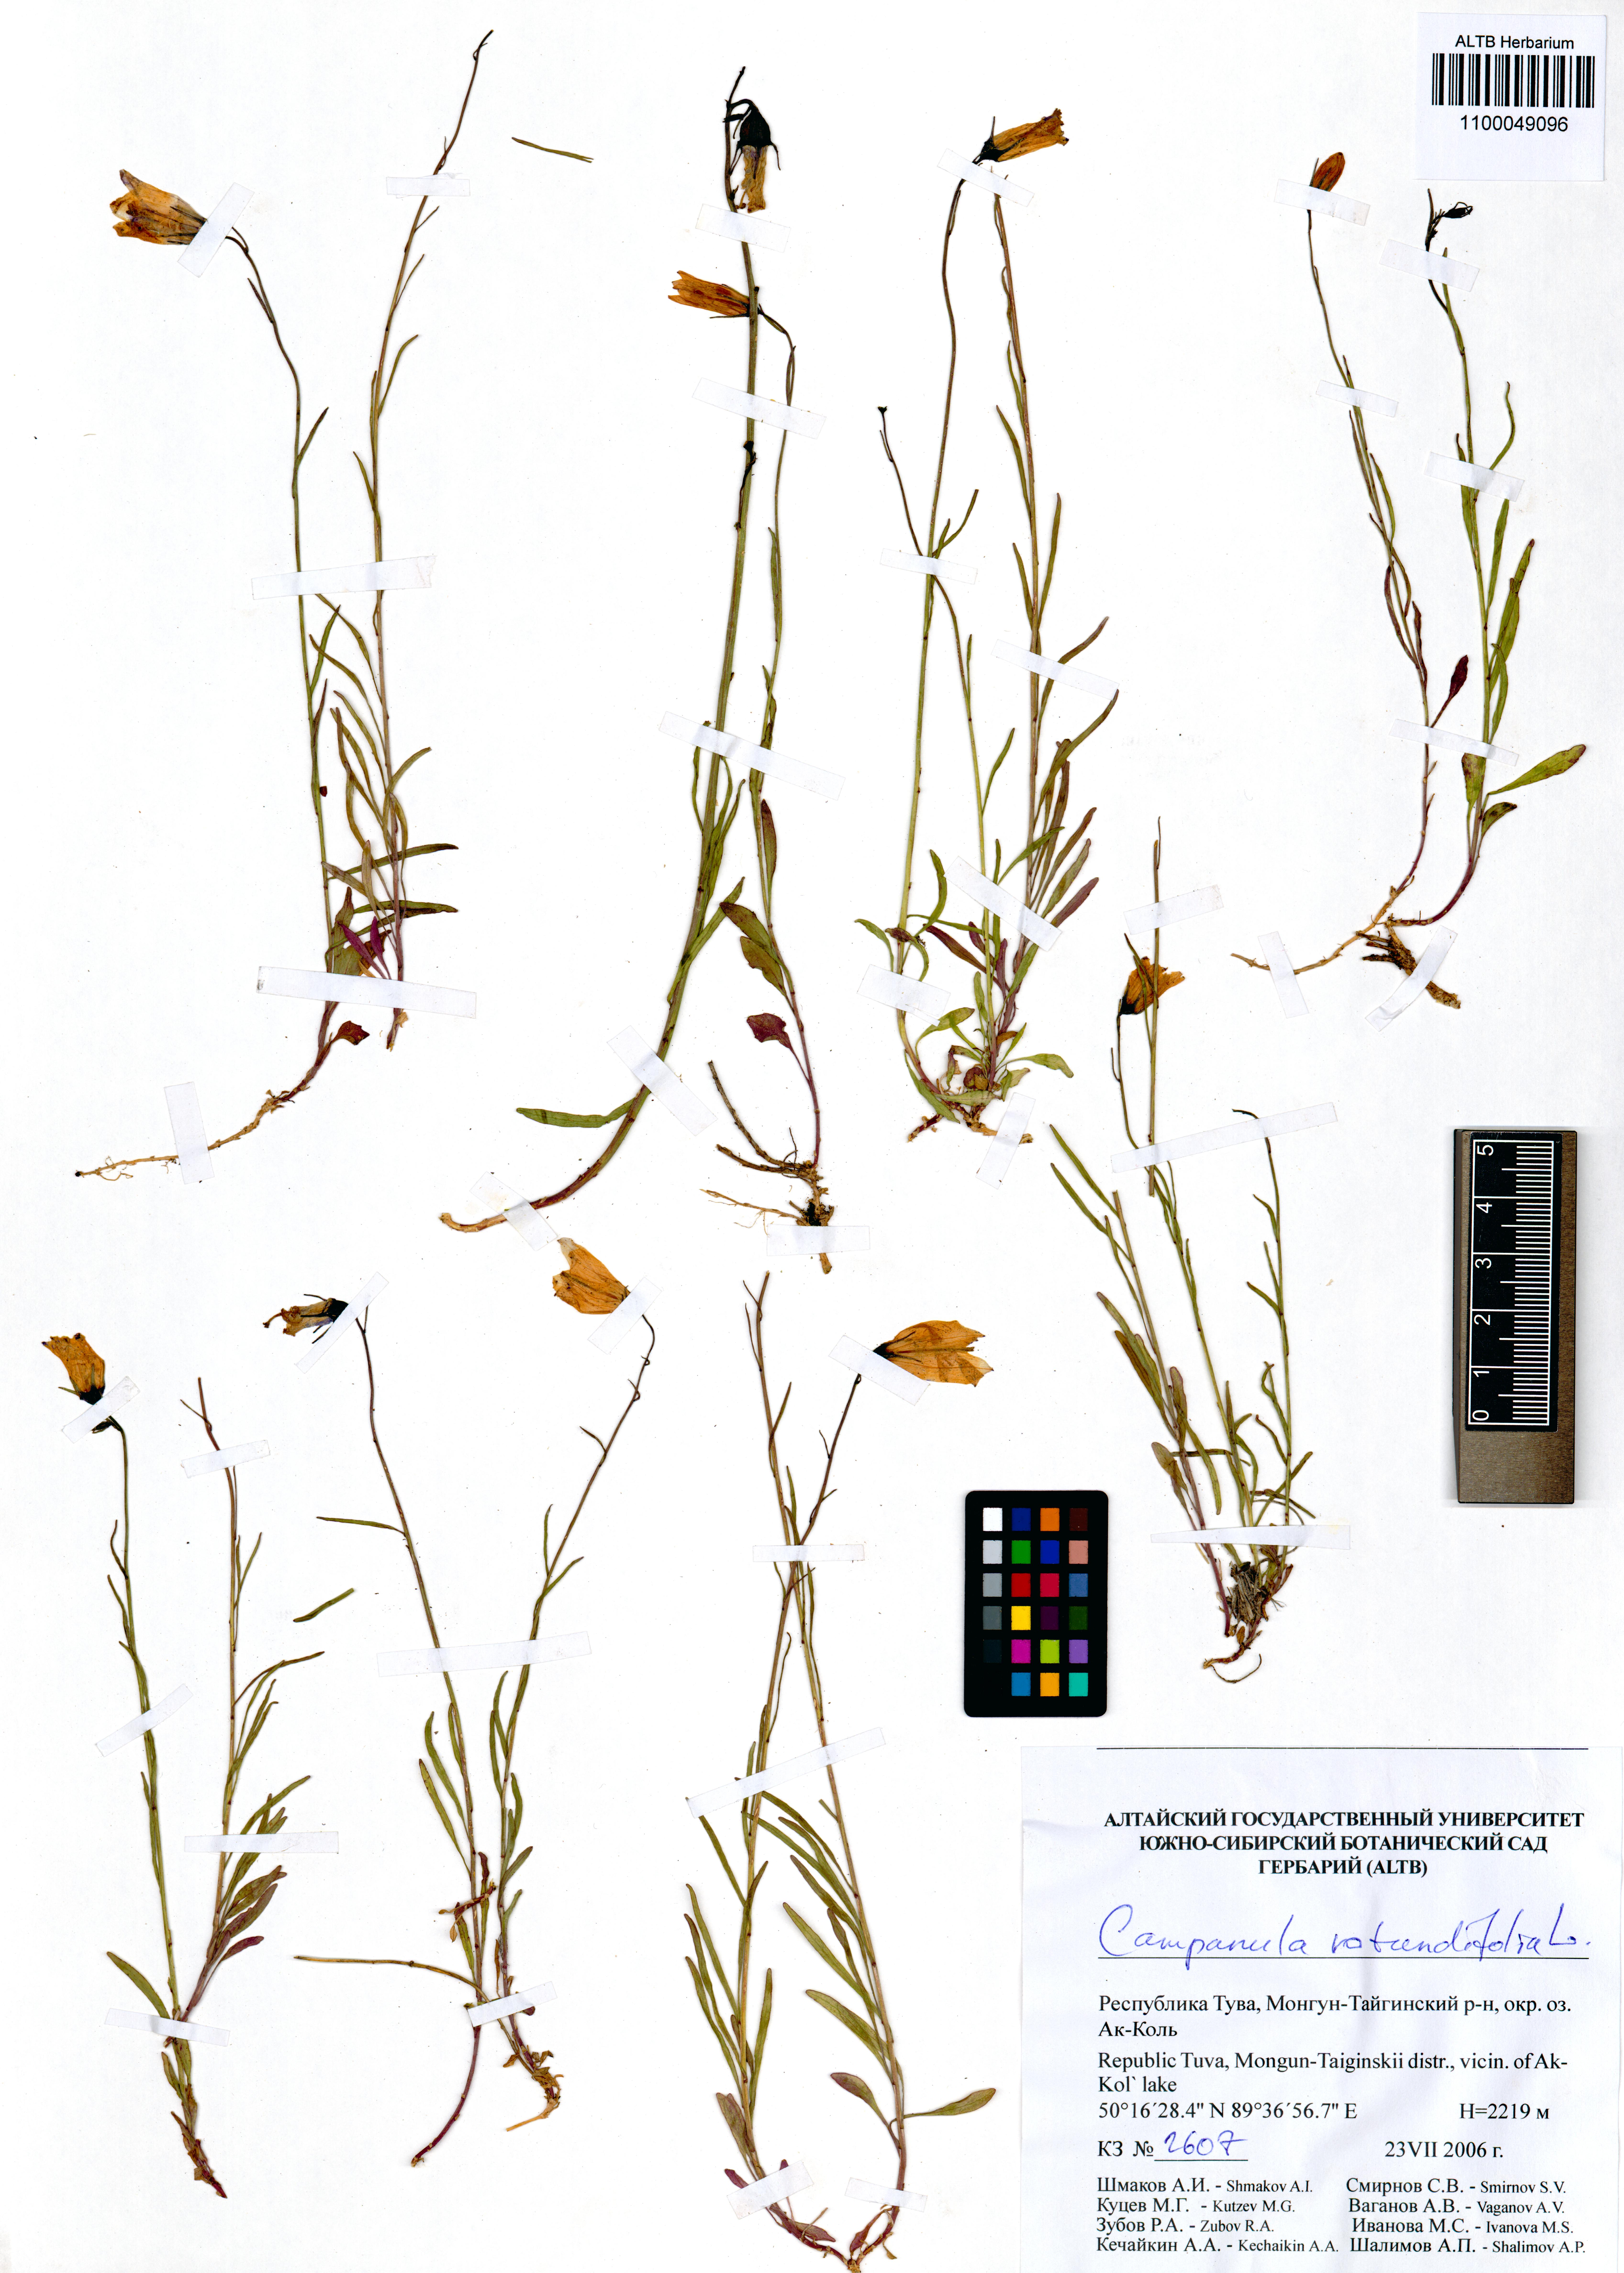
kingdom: Plantae
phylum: Tracheophyta
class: Magnoliopsida
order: Asterales
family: Campanulaceae
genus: Campanula
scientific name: Campanula rotundifolia
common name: Harebell
